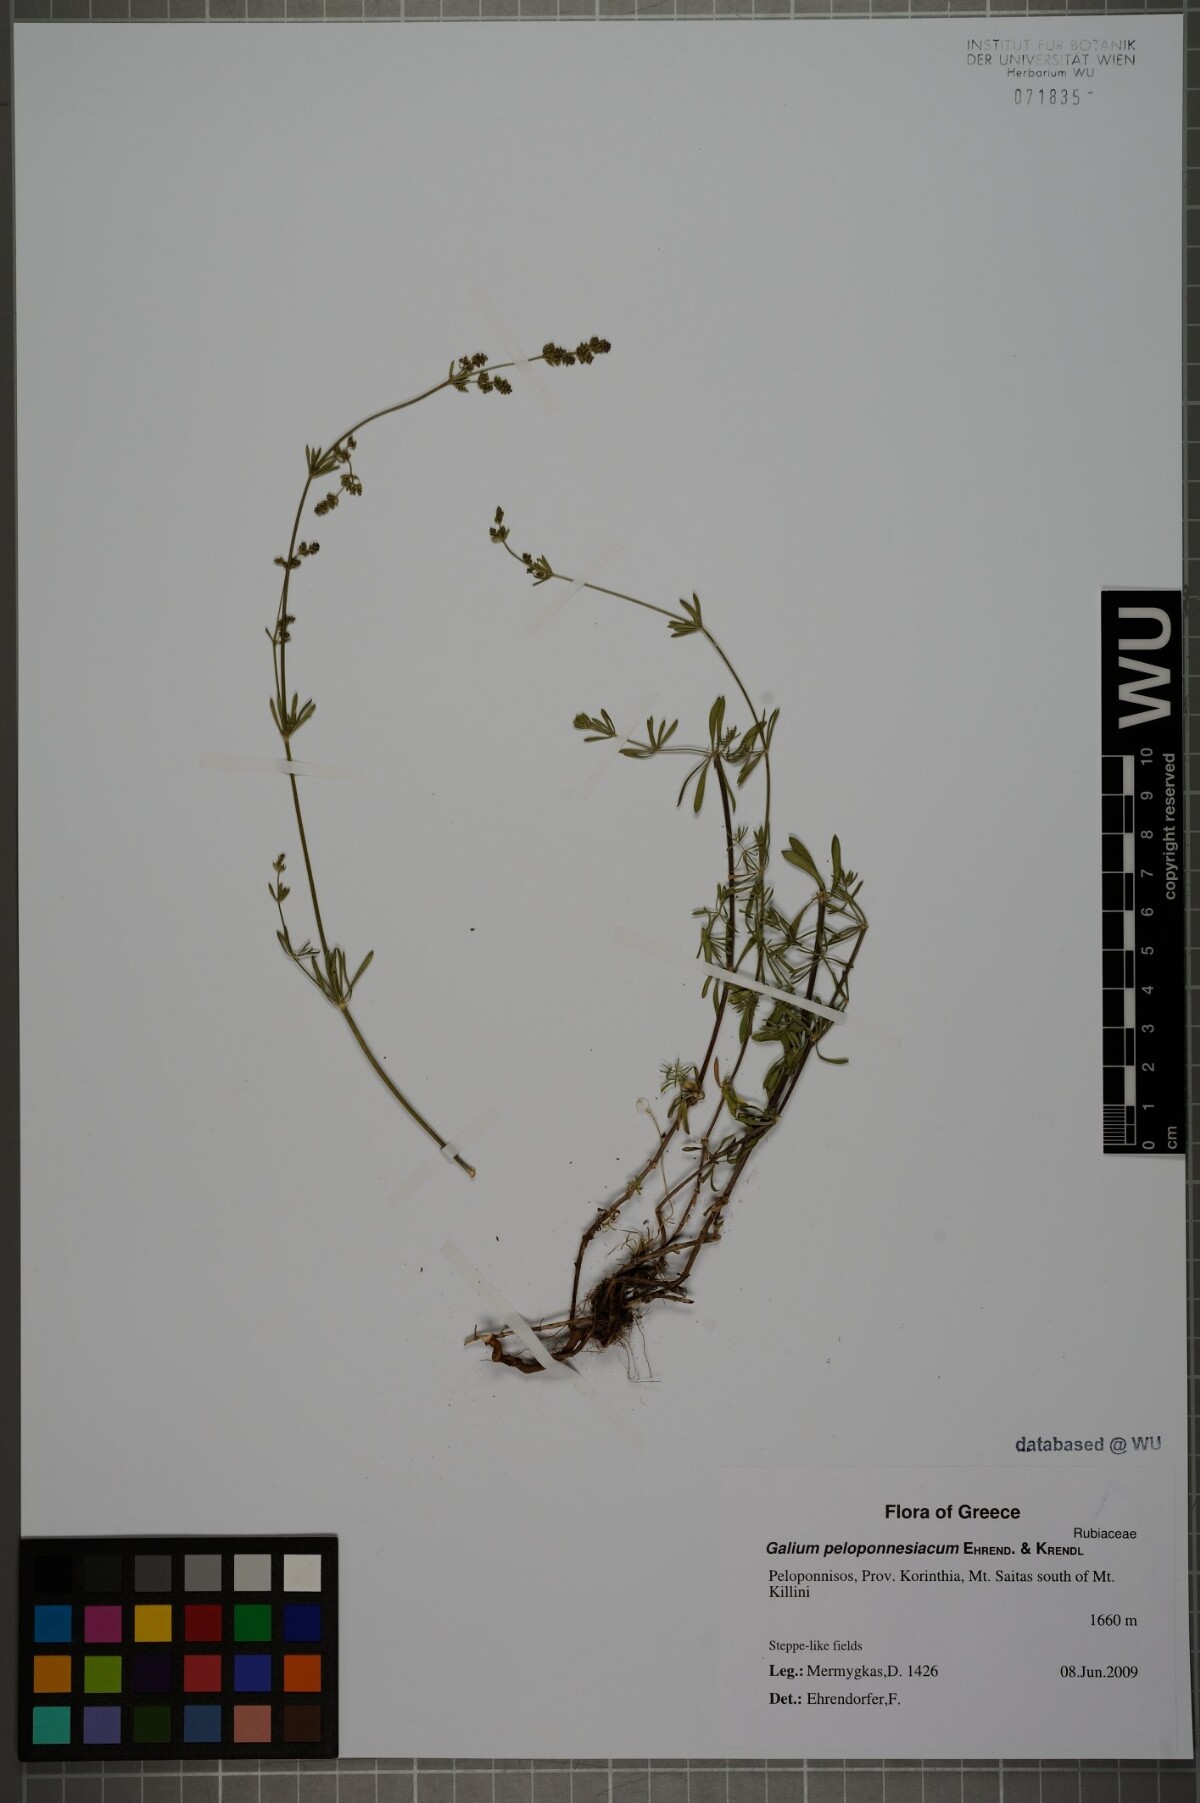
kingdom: Plantae
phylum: Tracheophyta
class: Magnoliopsida
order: Gentianales
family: Rubiaceae
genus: Galium
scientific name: Galium peloponnesiacum
